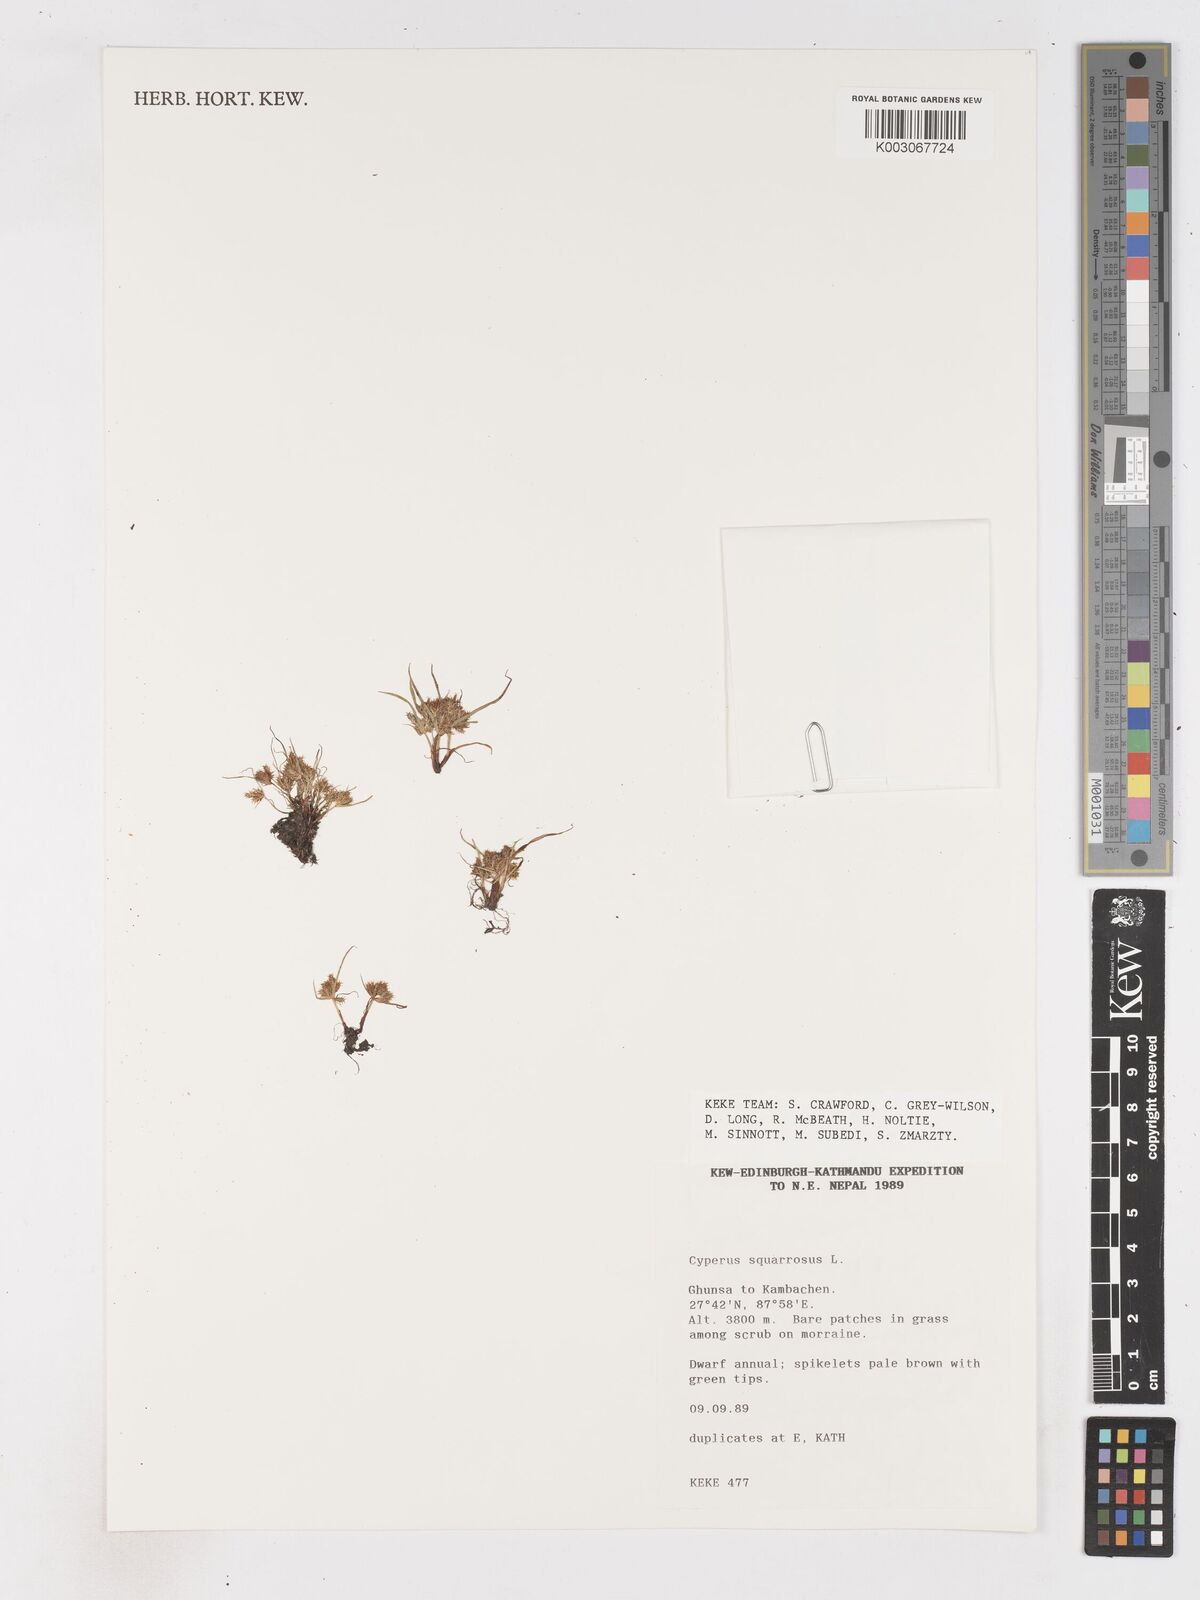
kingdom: Plantae
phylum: Tracheophyta
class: Liliopsida
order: Poales
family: Cyperaceae
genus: Cyperus
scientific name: Cyperus squarrosus
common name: Awned cyperus
